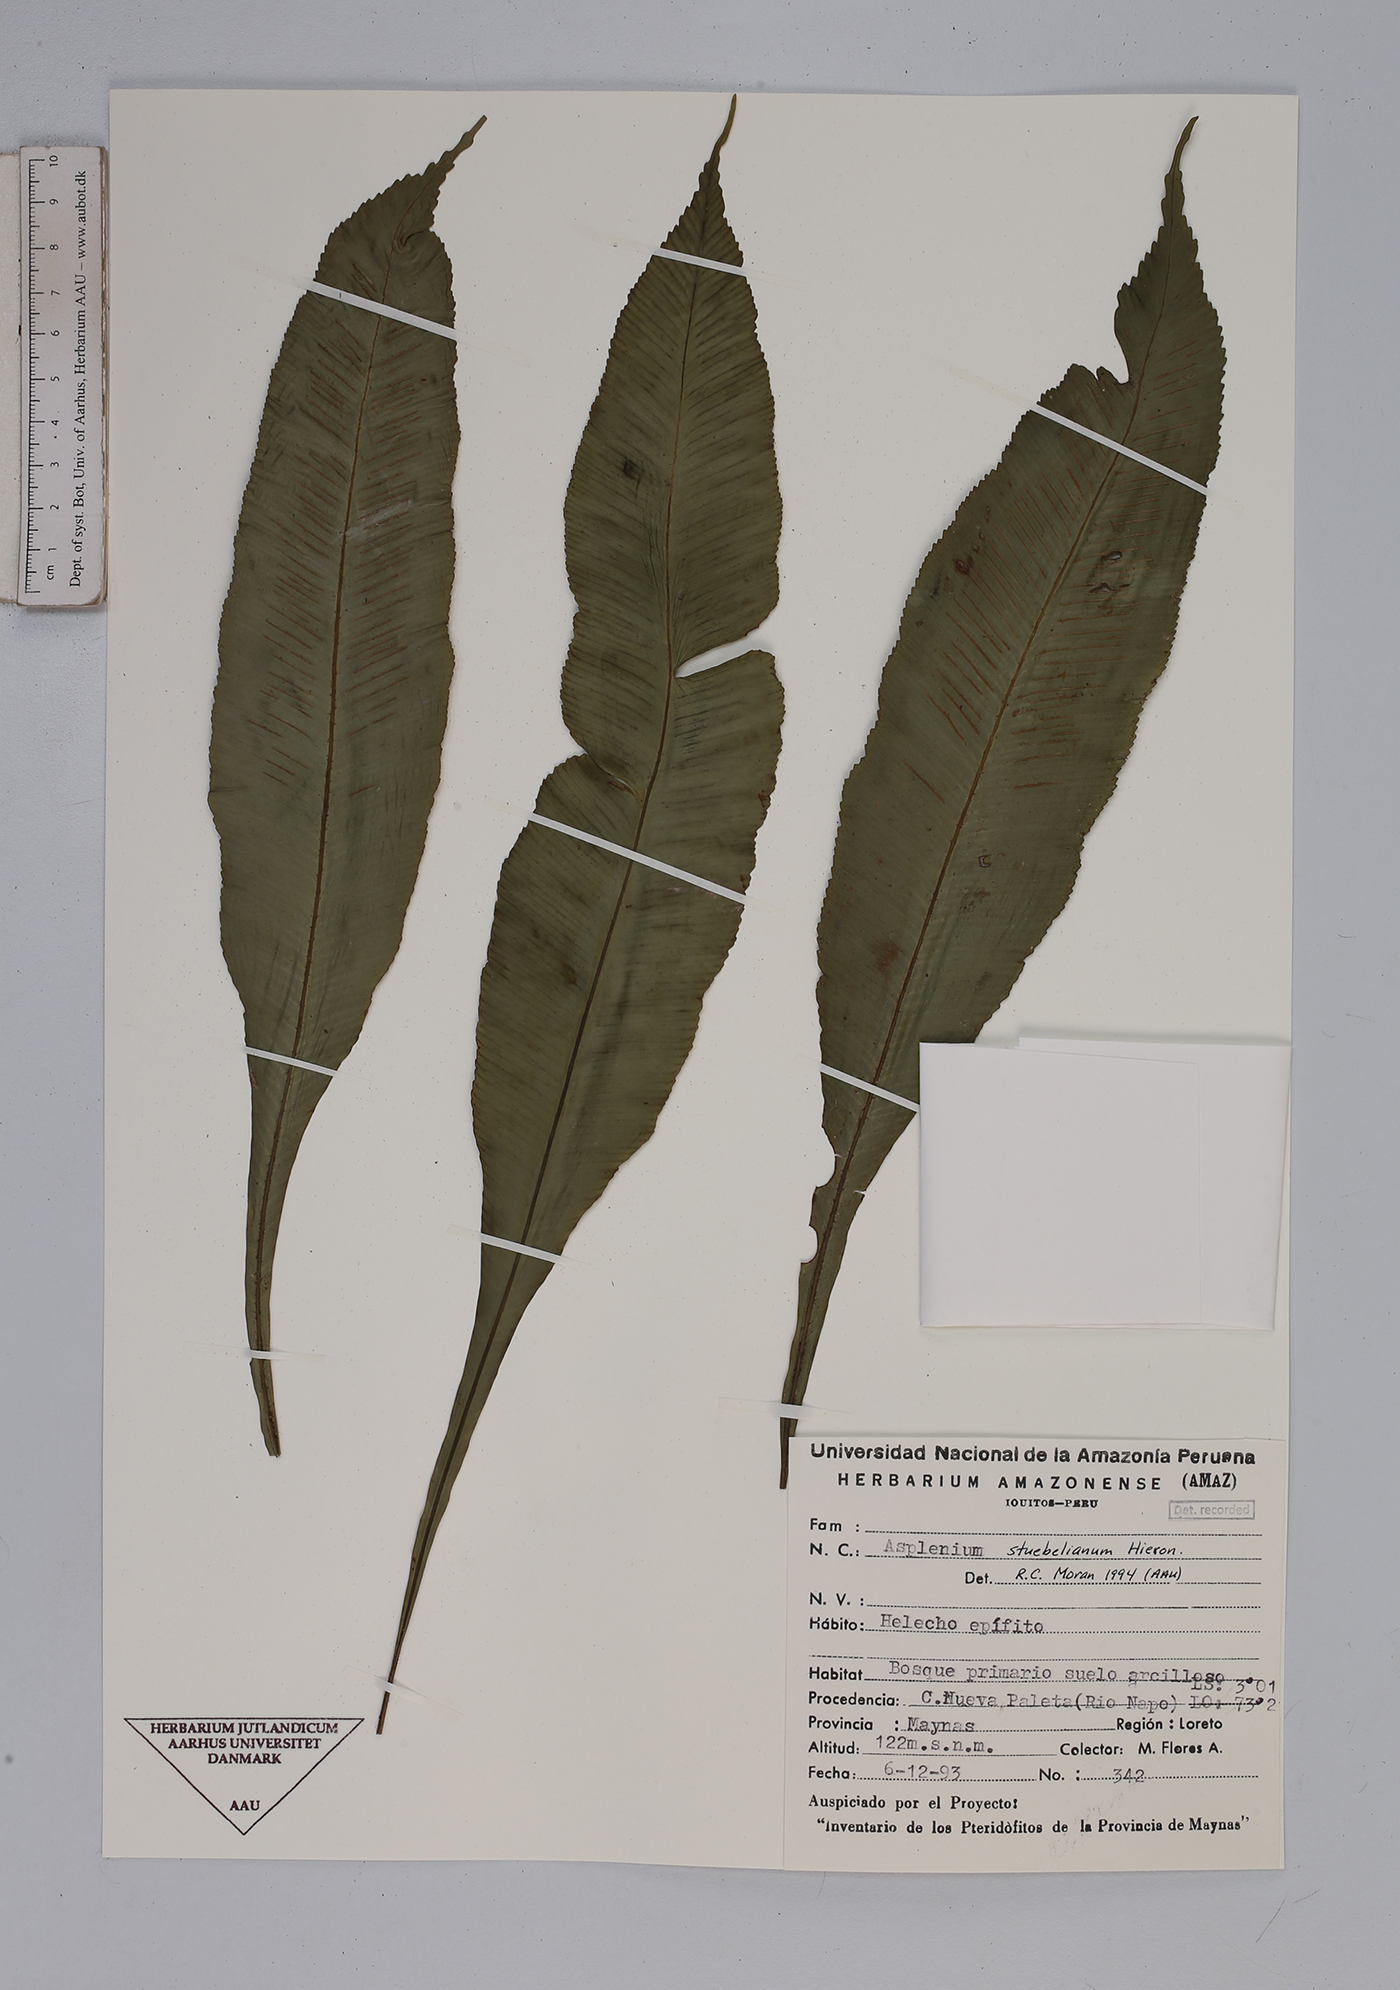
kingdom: Plantae
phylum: Tracheophyta
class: Polypodiopsida
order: Polypodiales
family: Aspleniaceae
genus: Asplenium
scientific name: Asplenium stuebelianum
